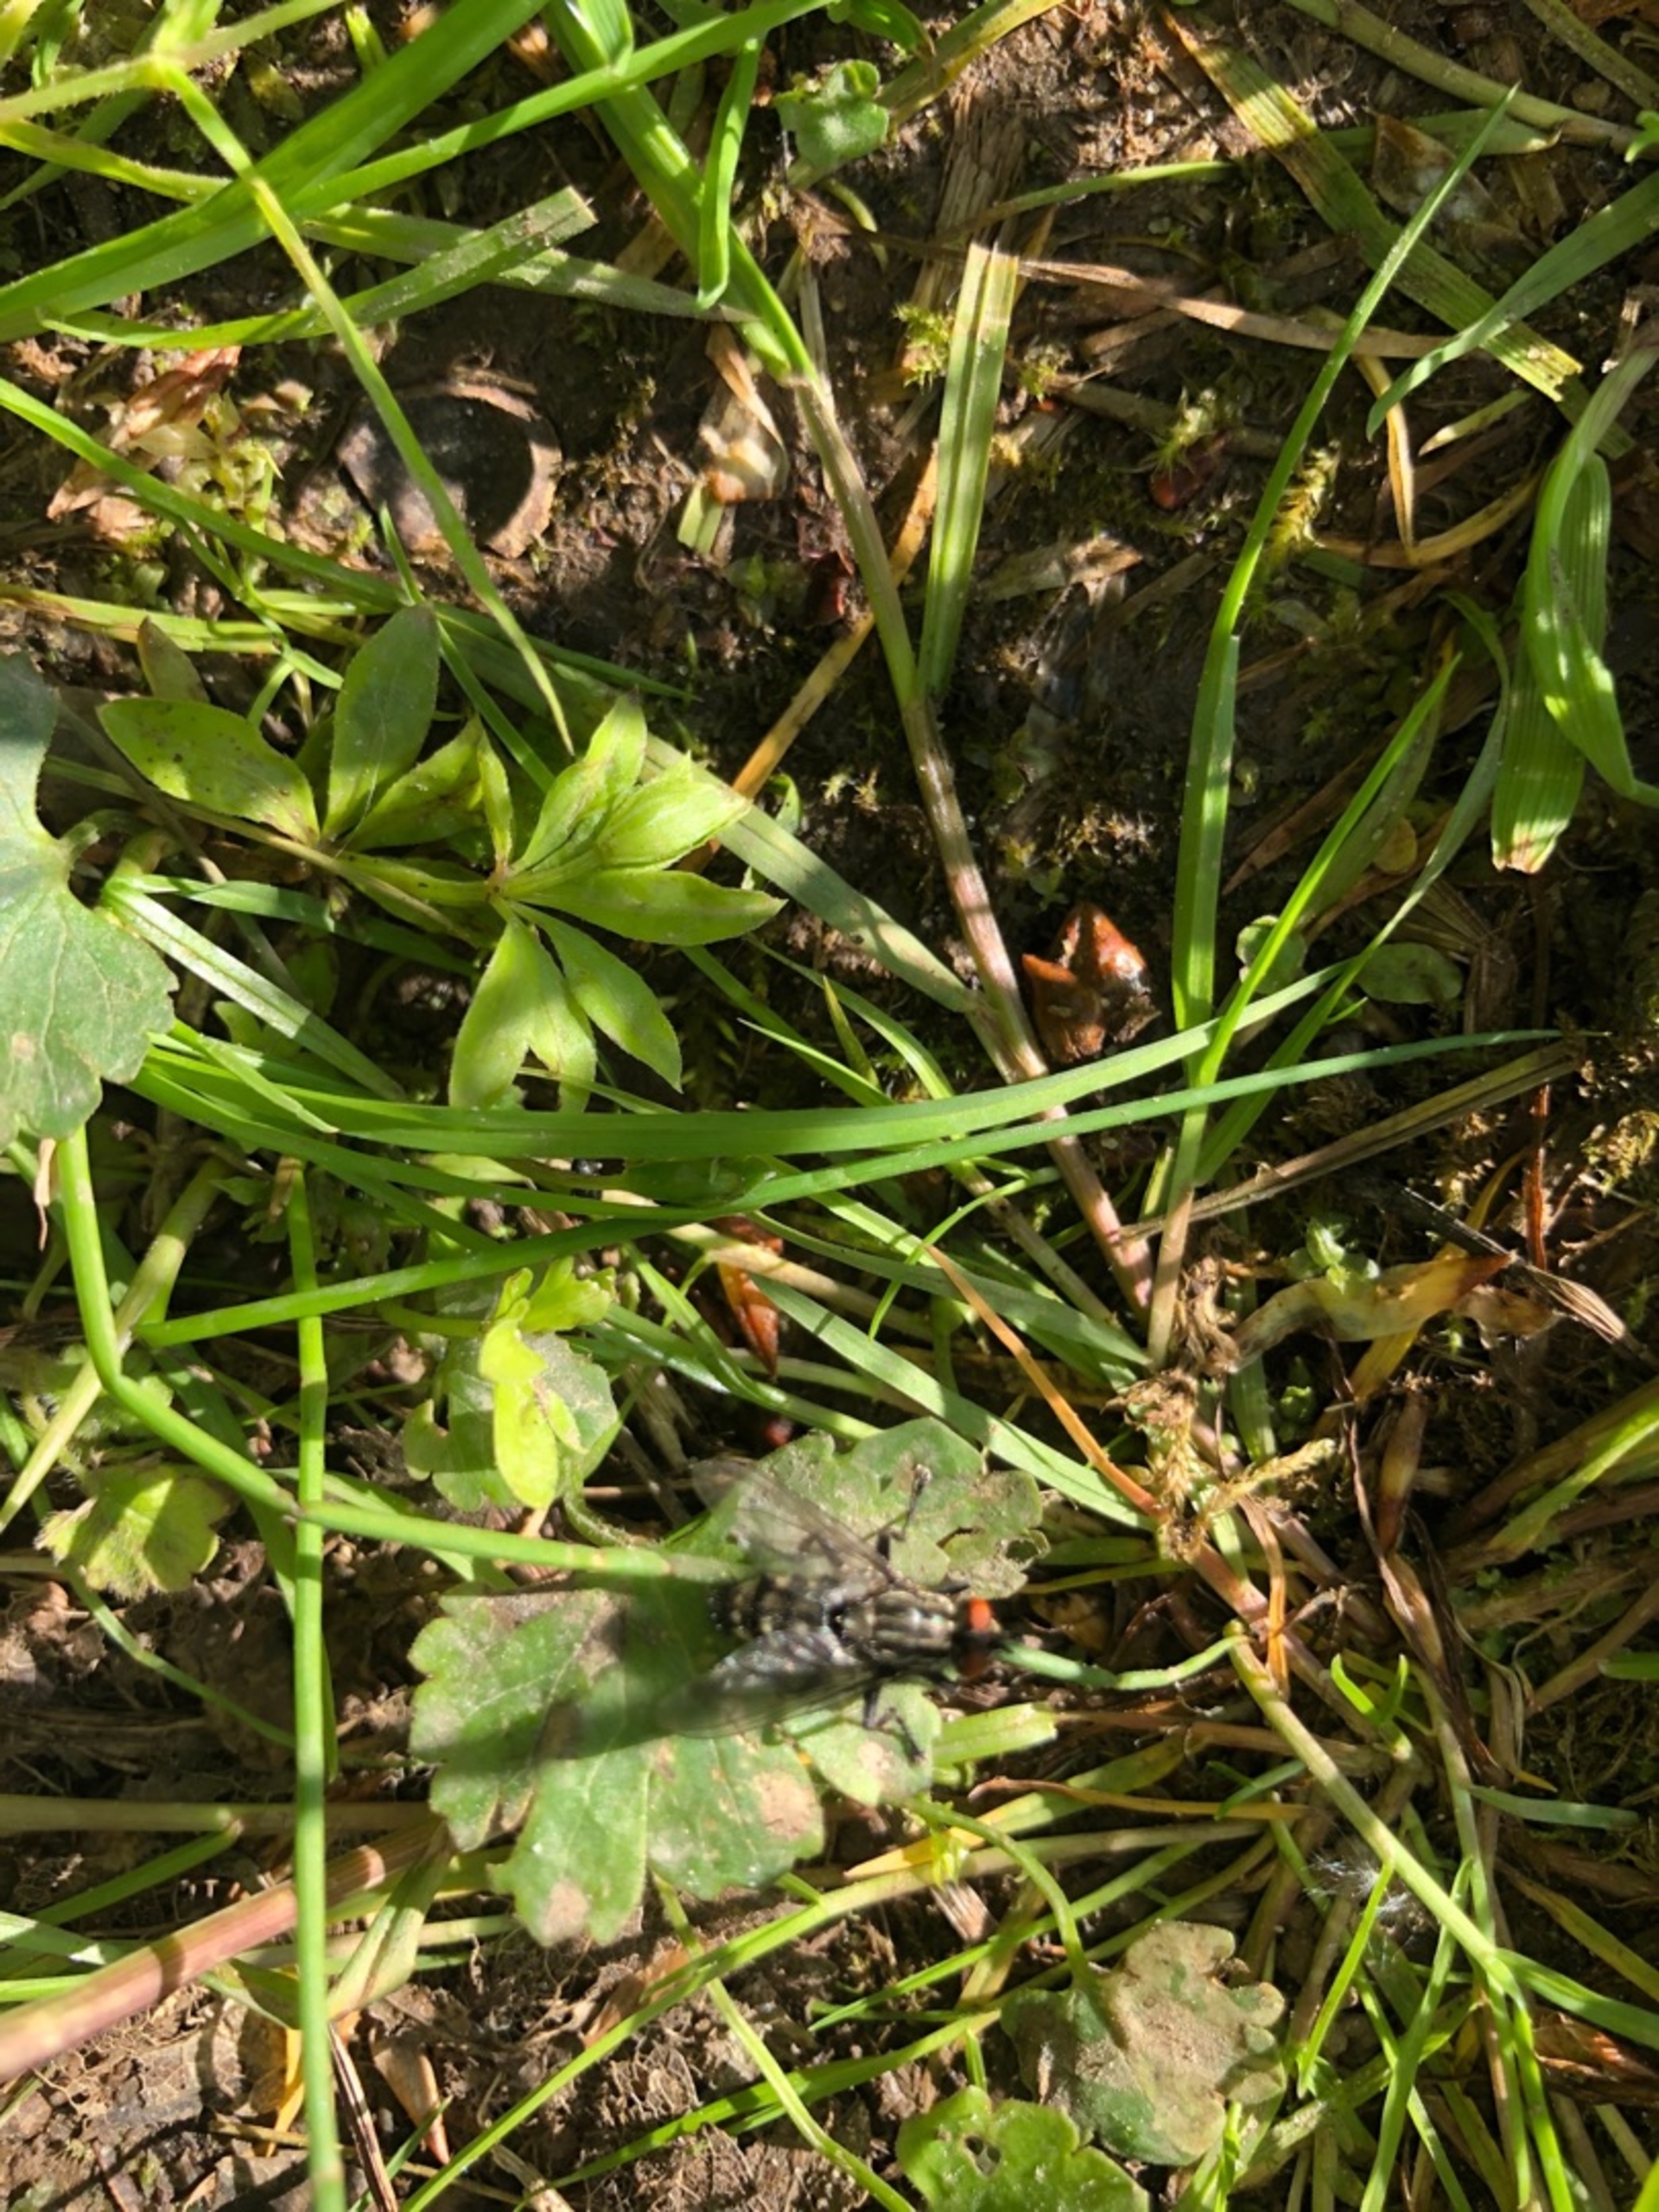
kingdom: Animalia
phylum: Arthropoda
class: Insecta
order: Diptera
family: Sarcophagidae
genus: Sarcophaga
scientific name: Sarcophaga
